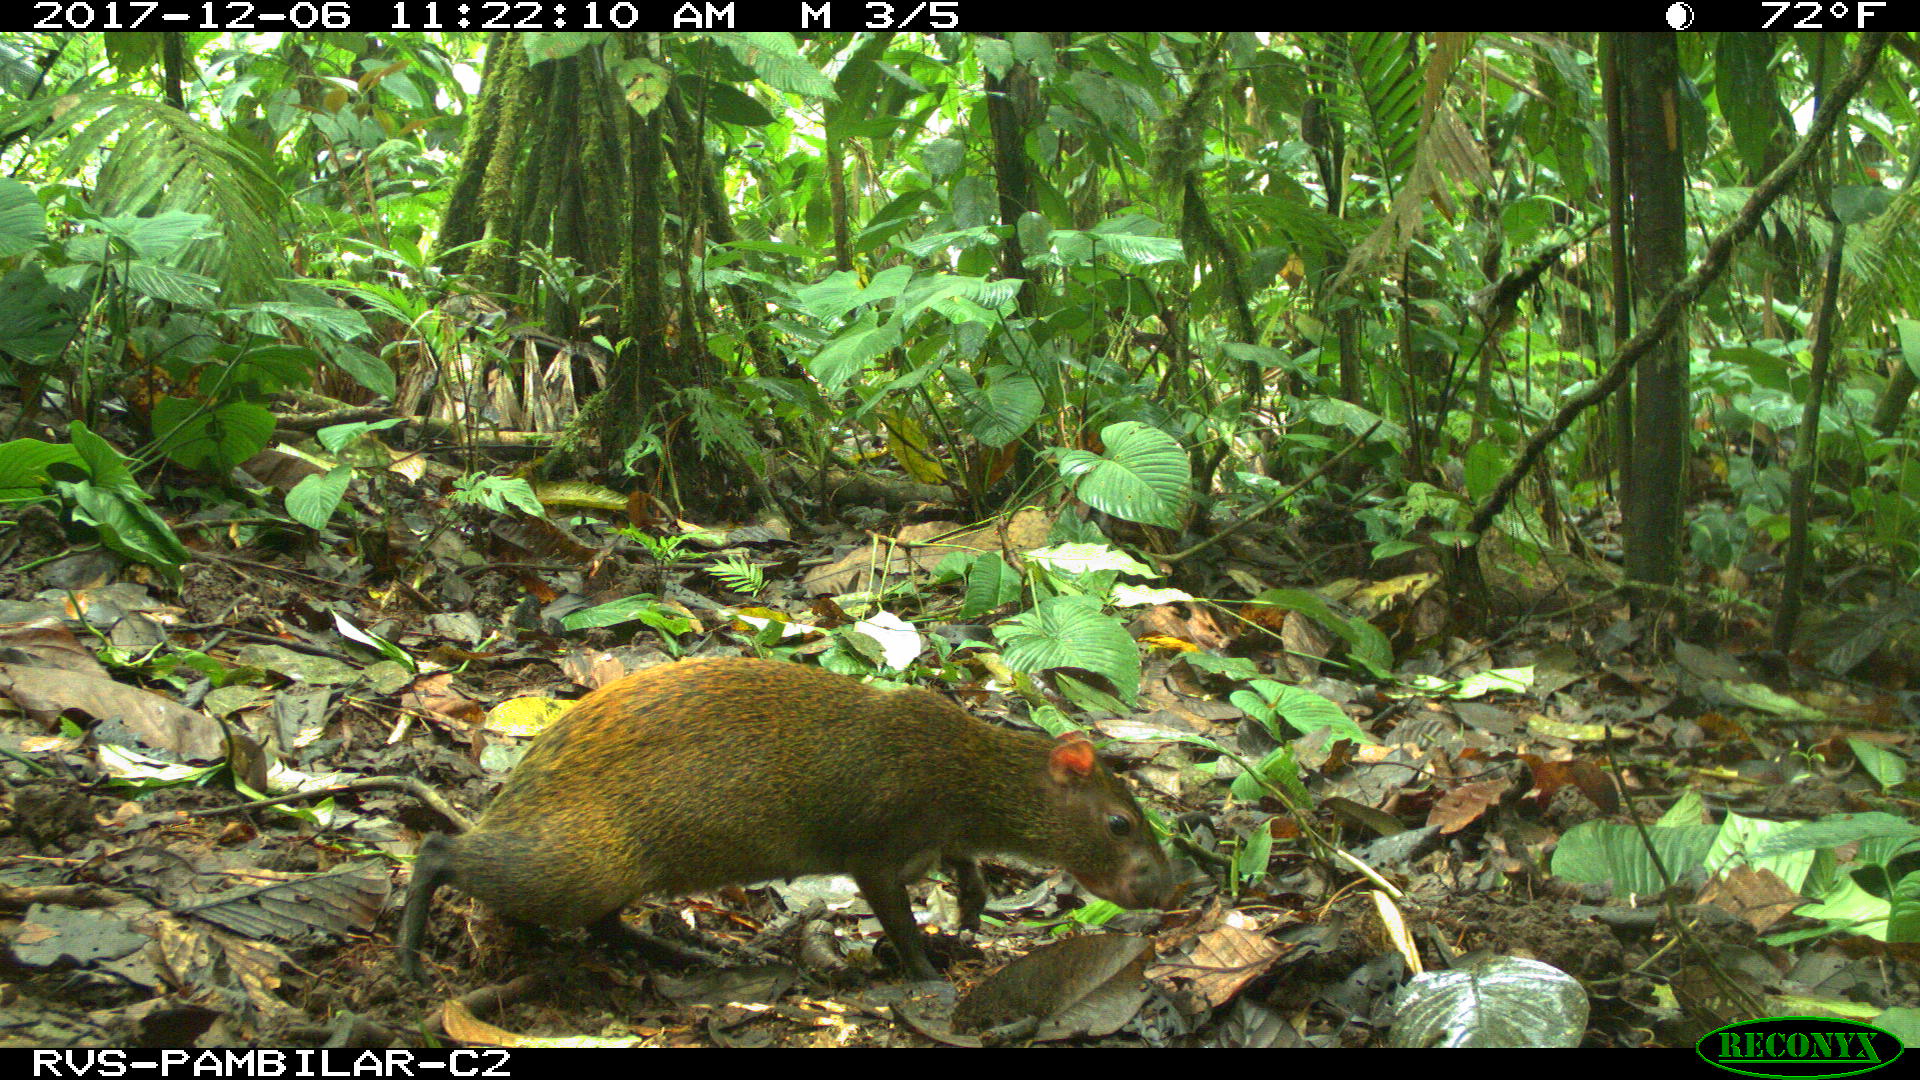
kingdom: Animalia
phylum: Chordata
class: Mammalia
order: Rodentia
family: Dasyproctidae
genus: Dasyprocta
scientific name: Dasyprocta punctata
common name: Central american agouti
